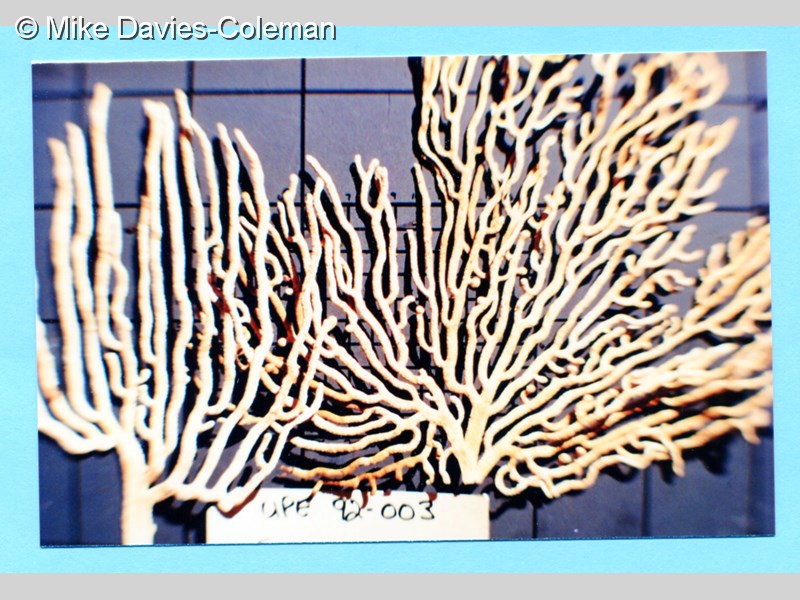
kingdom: Animalia
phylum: Cnidaria
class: Anthozoa
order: Malacalcyonacea
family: Eunicellidae
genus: Eunicella
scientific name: Eunicella albicans
